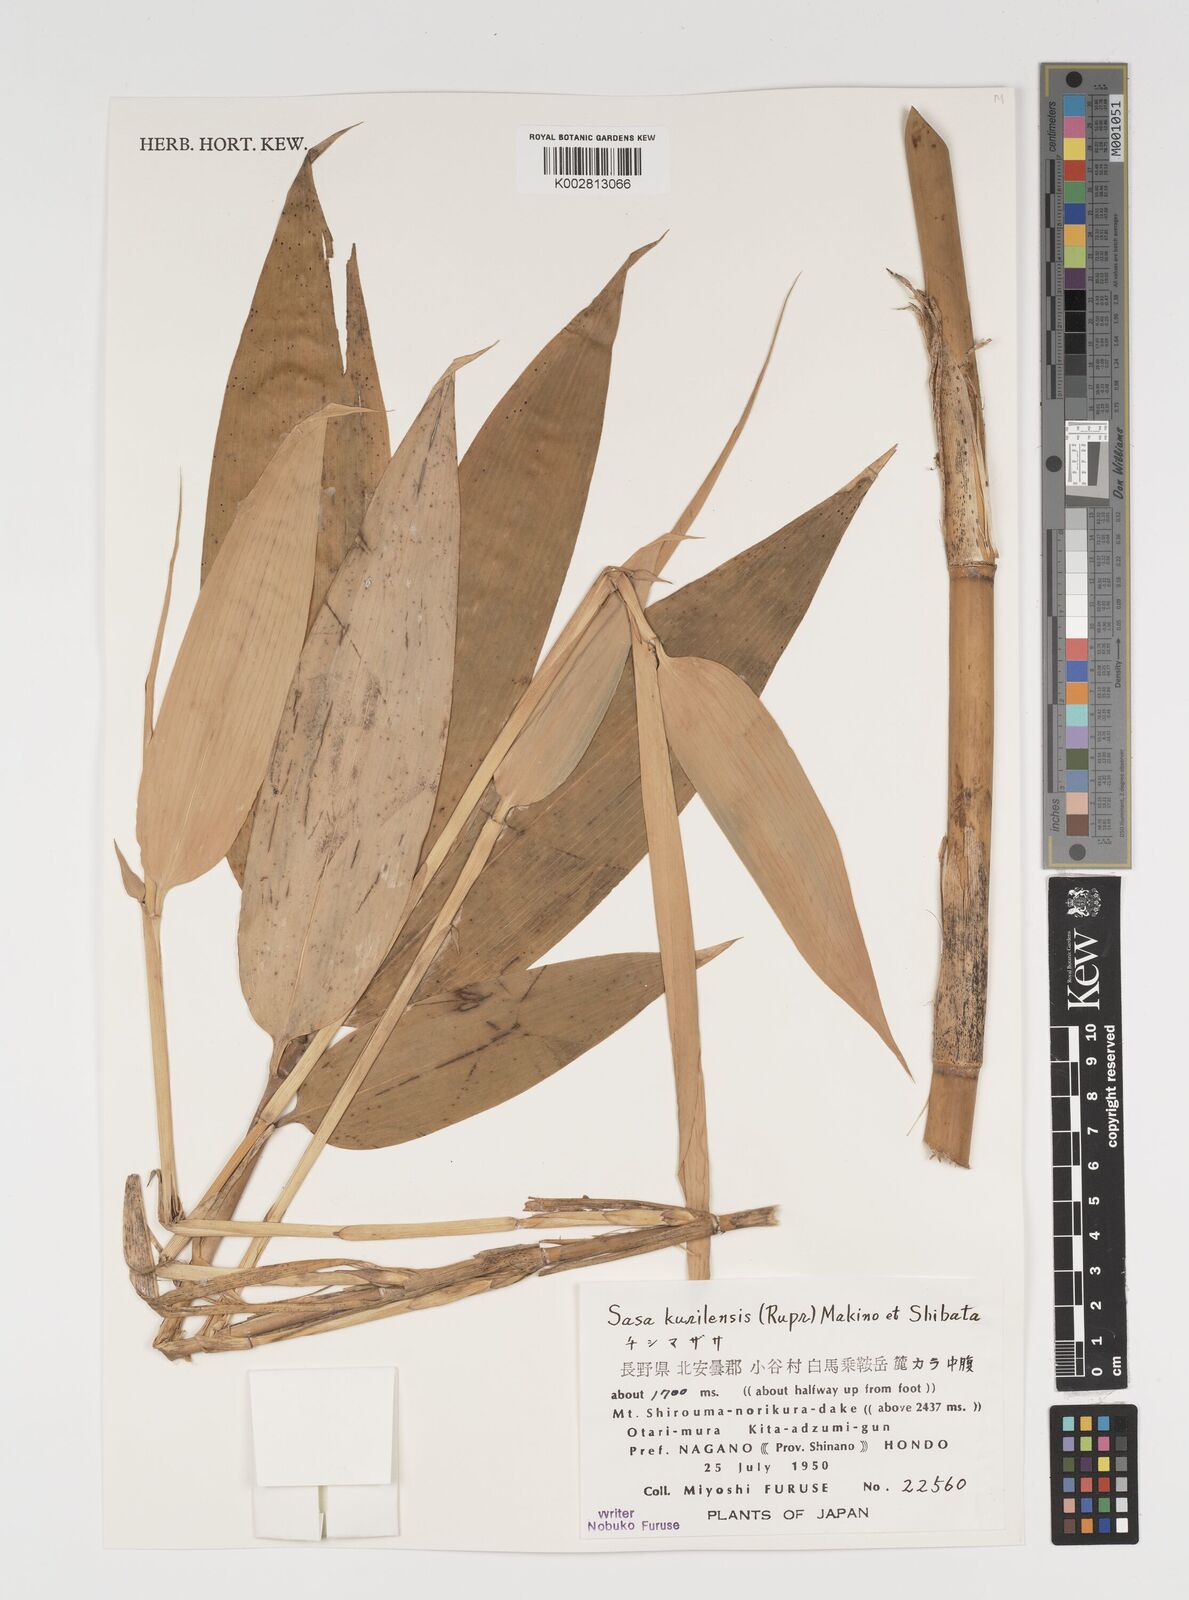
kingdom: Plantae
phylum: Tracheophyta
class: Liliopsida
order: Poales
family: Poaceae
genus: Sasa
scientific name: Sasa kurilensis
